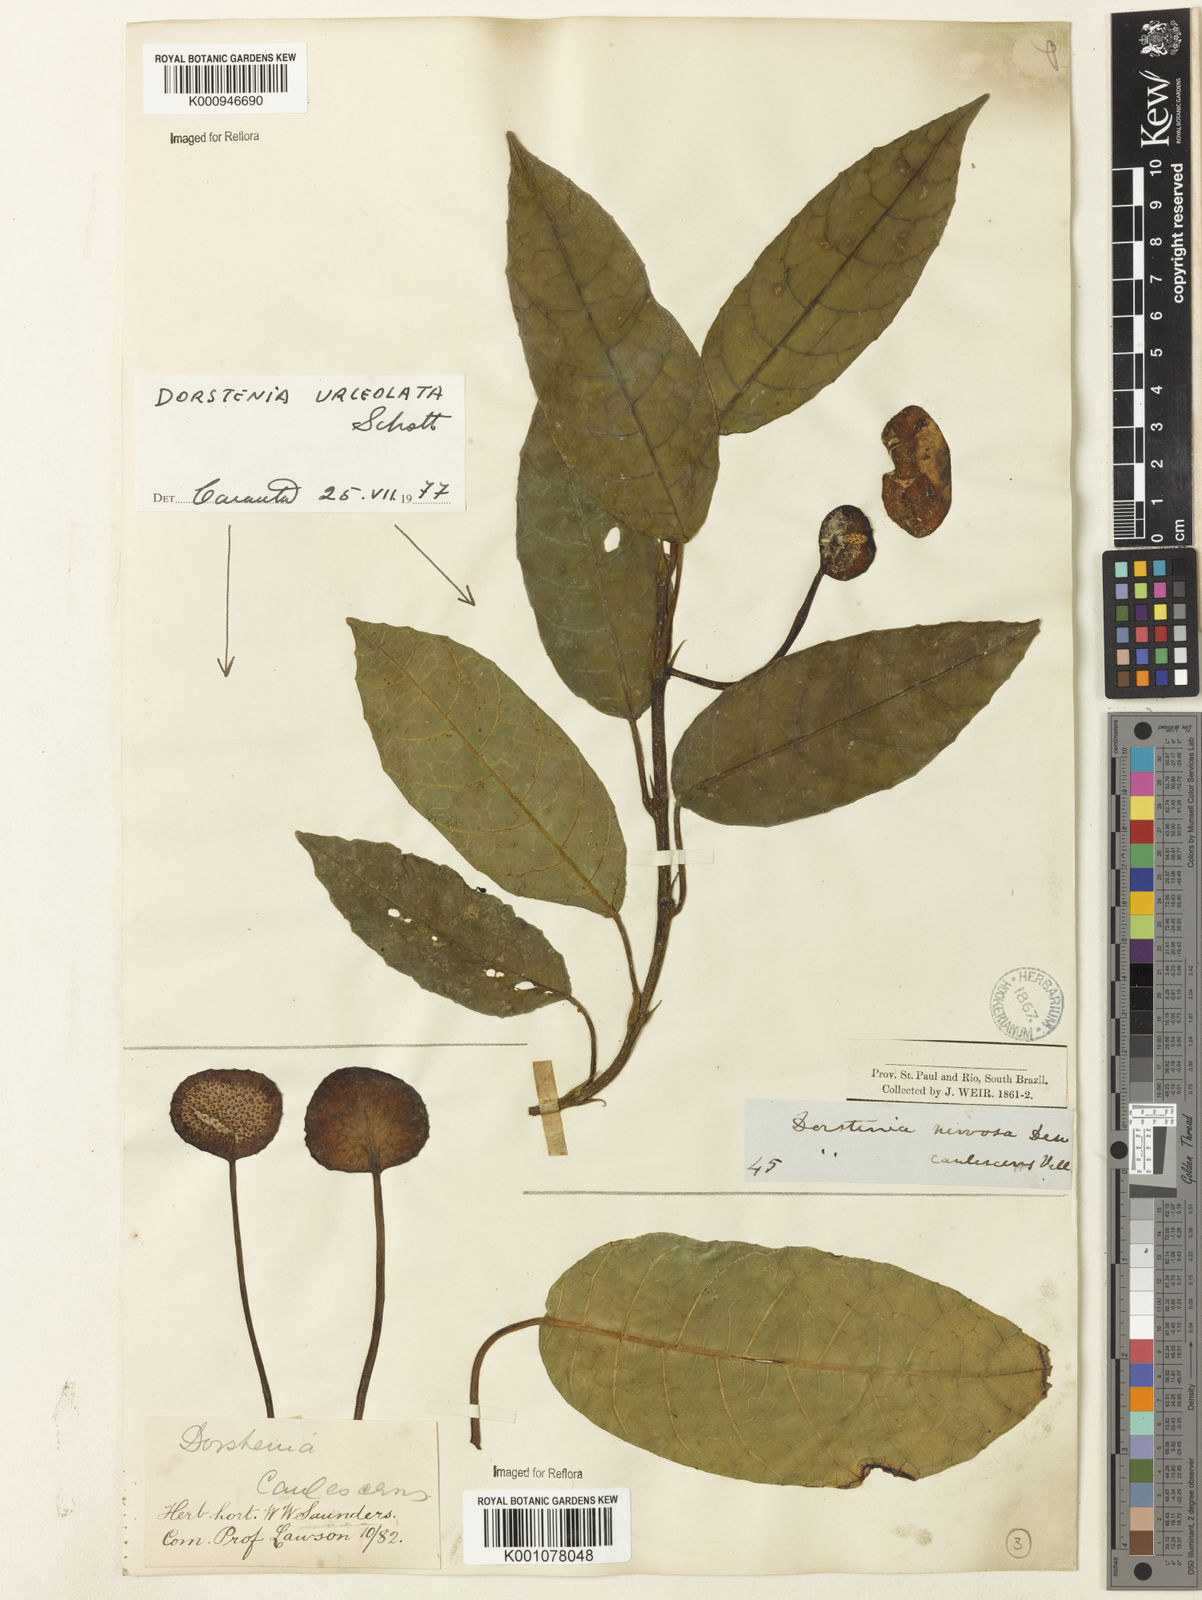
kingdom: Plantae
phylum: Tracheophyta
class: Magnoliopsida
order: Rosales
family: Moraceae
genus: Dorstenia
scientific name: Dorstenia urceolata
